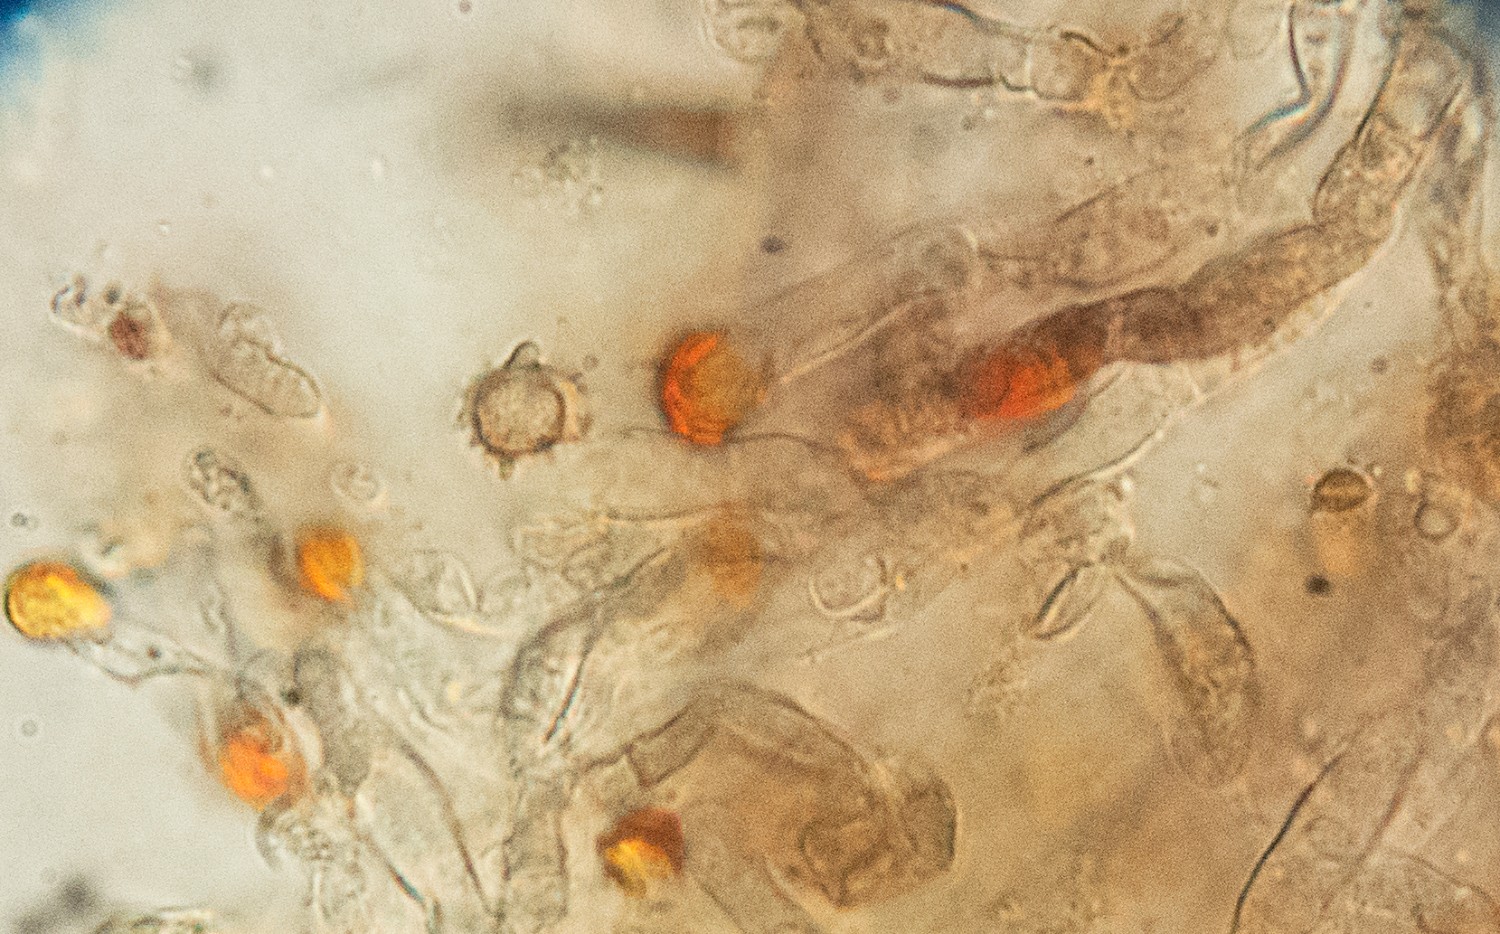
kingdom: Fungi
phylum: Basidiomycota
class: Agaricomycetes
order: Thelephorales
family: Thelephoraceae
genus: Tomentella
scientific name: Tomentella lateritia
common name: teglrød frynsehinde
